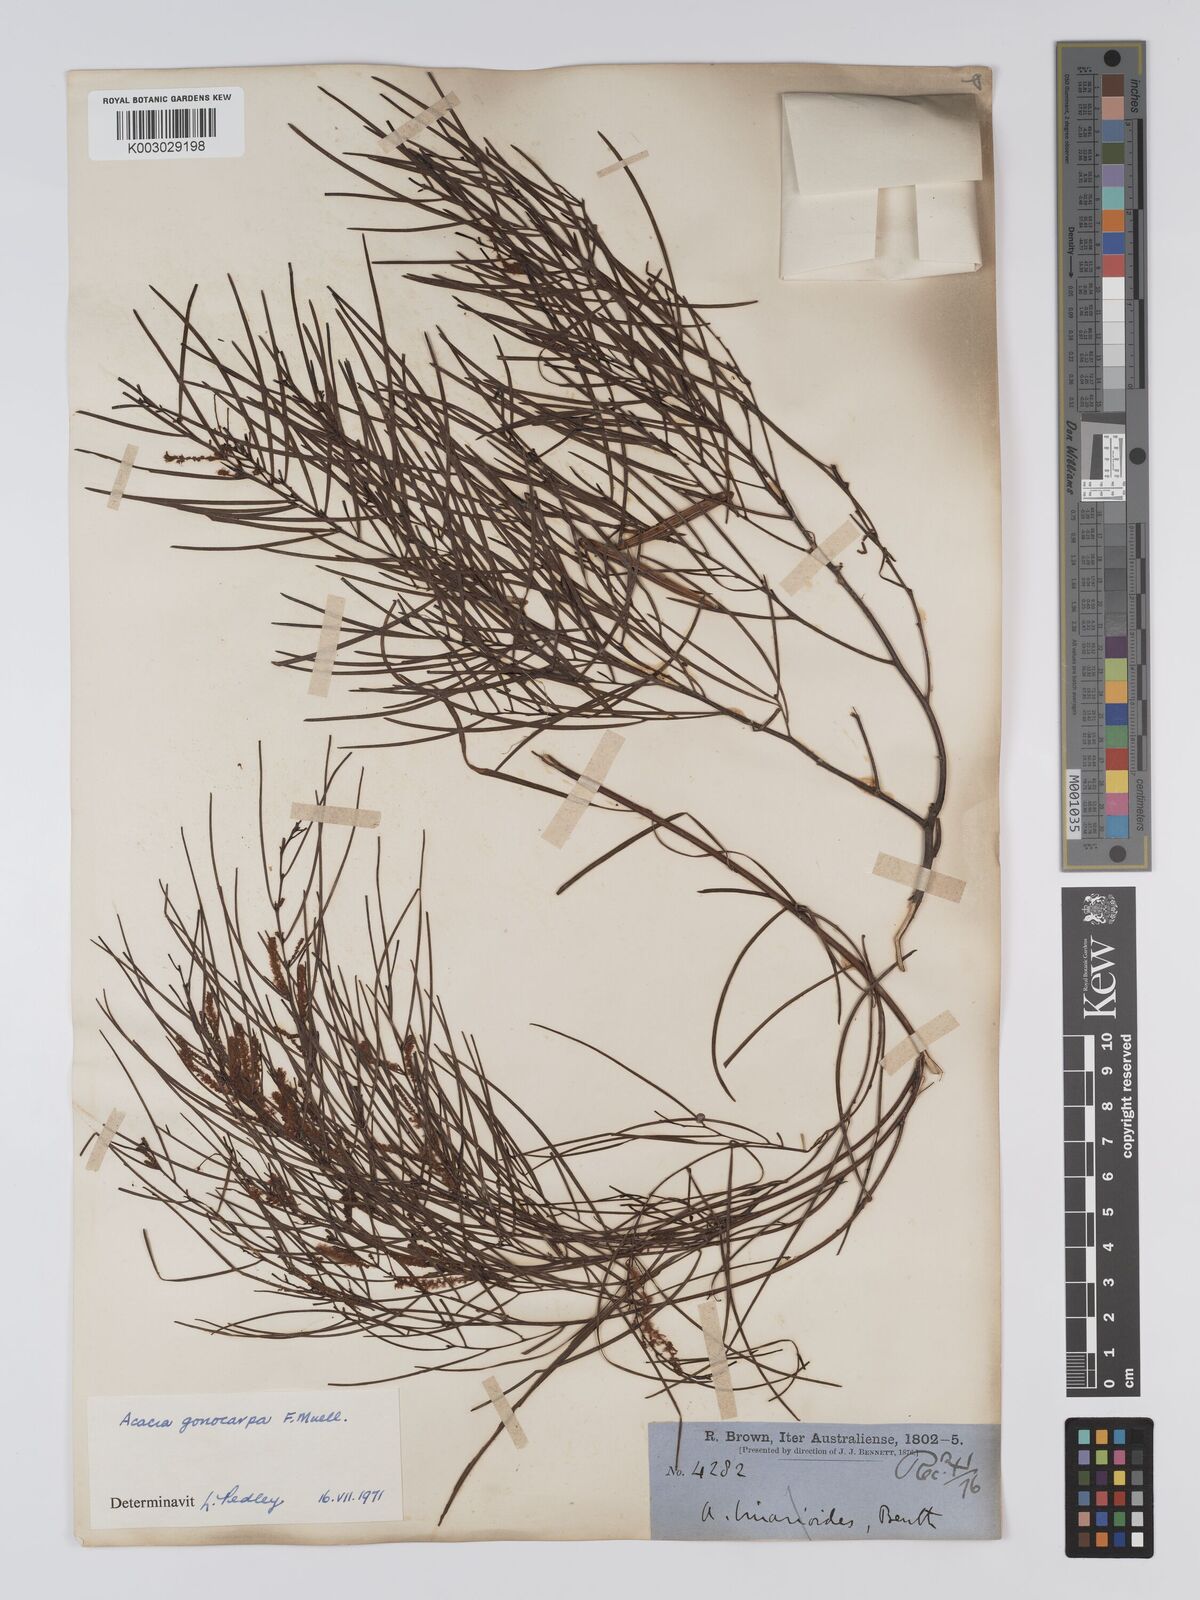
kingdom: Plantae
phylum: Tracheophyta
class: Magnoliopsida
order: Fabales
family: Fabaceae
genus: Acacia
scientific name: Acacia gonocarpa
